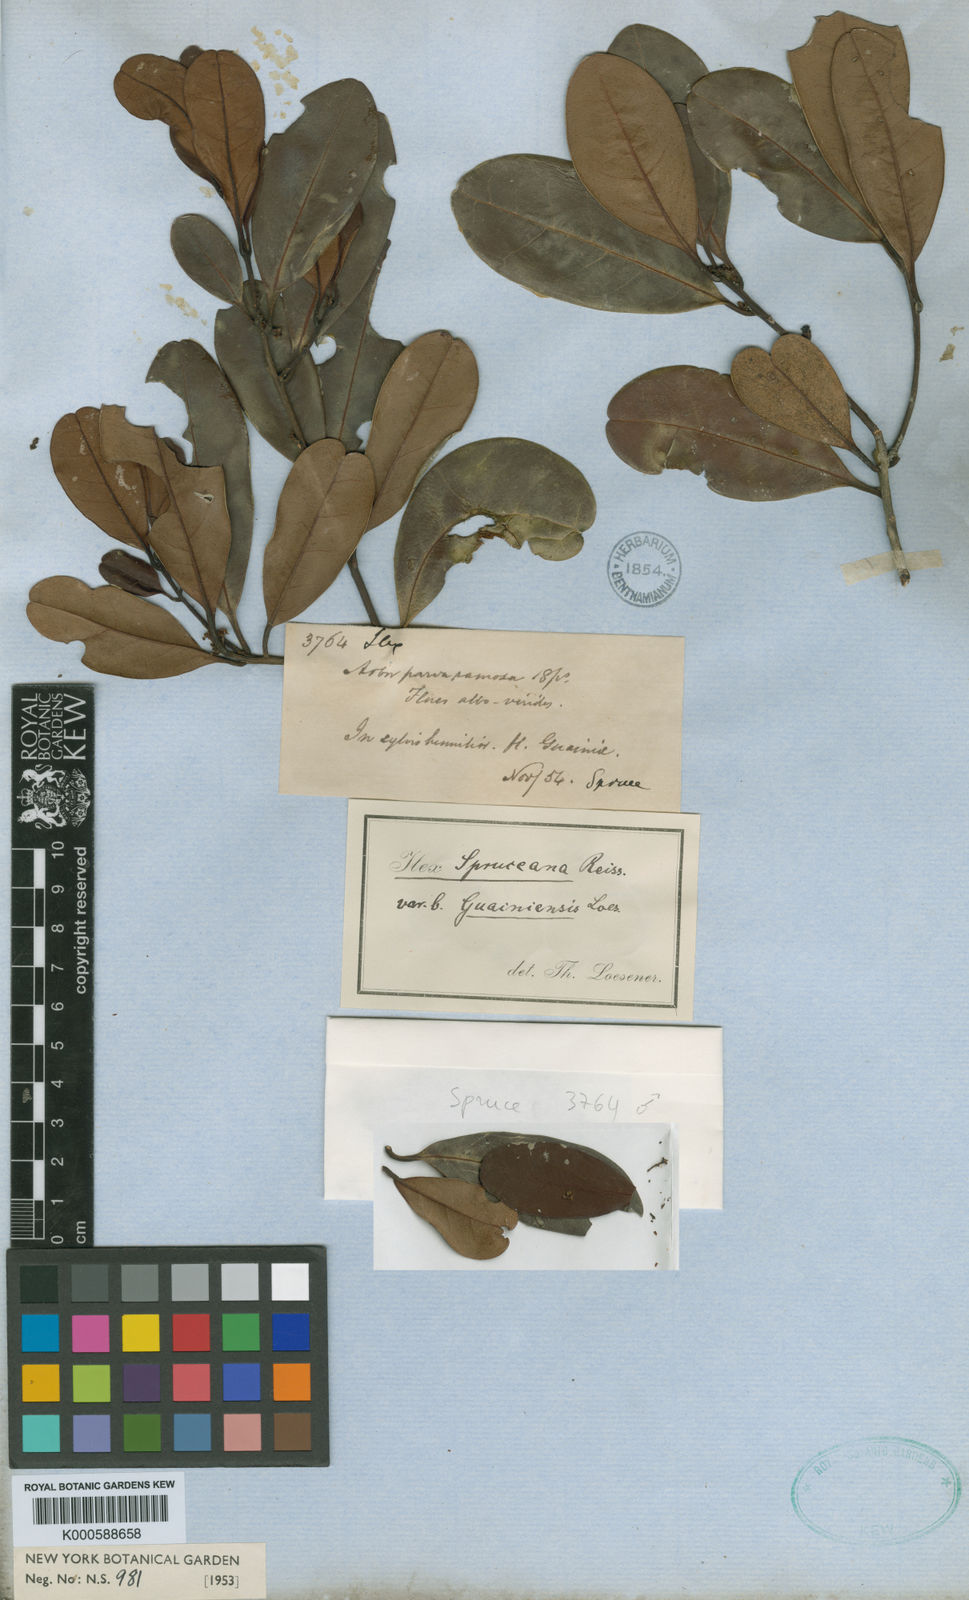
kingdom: Plantae
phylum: Tracheophyta
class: Magnoliopsida
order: Aquifoliales
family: Aquifoliaceae
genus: Ilex
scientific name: Ilex spruceana
